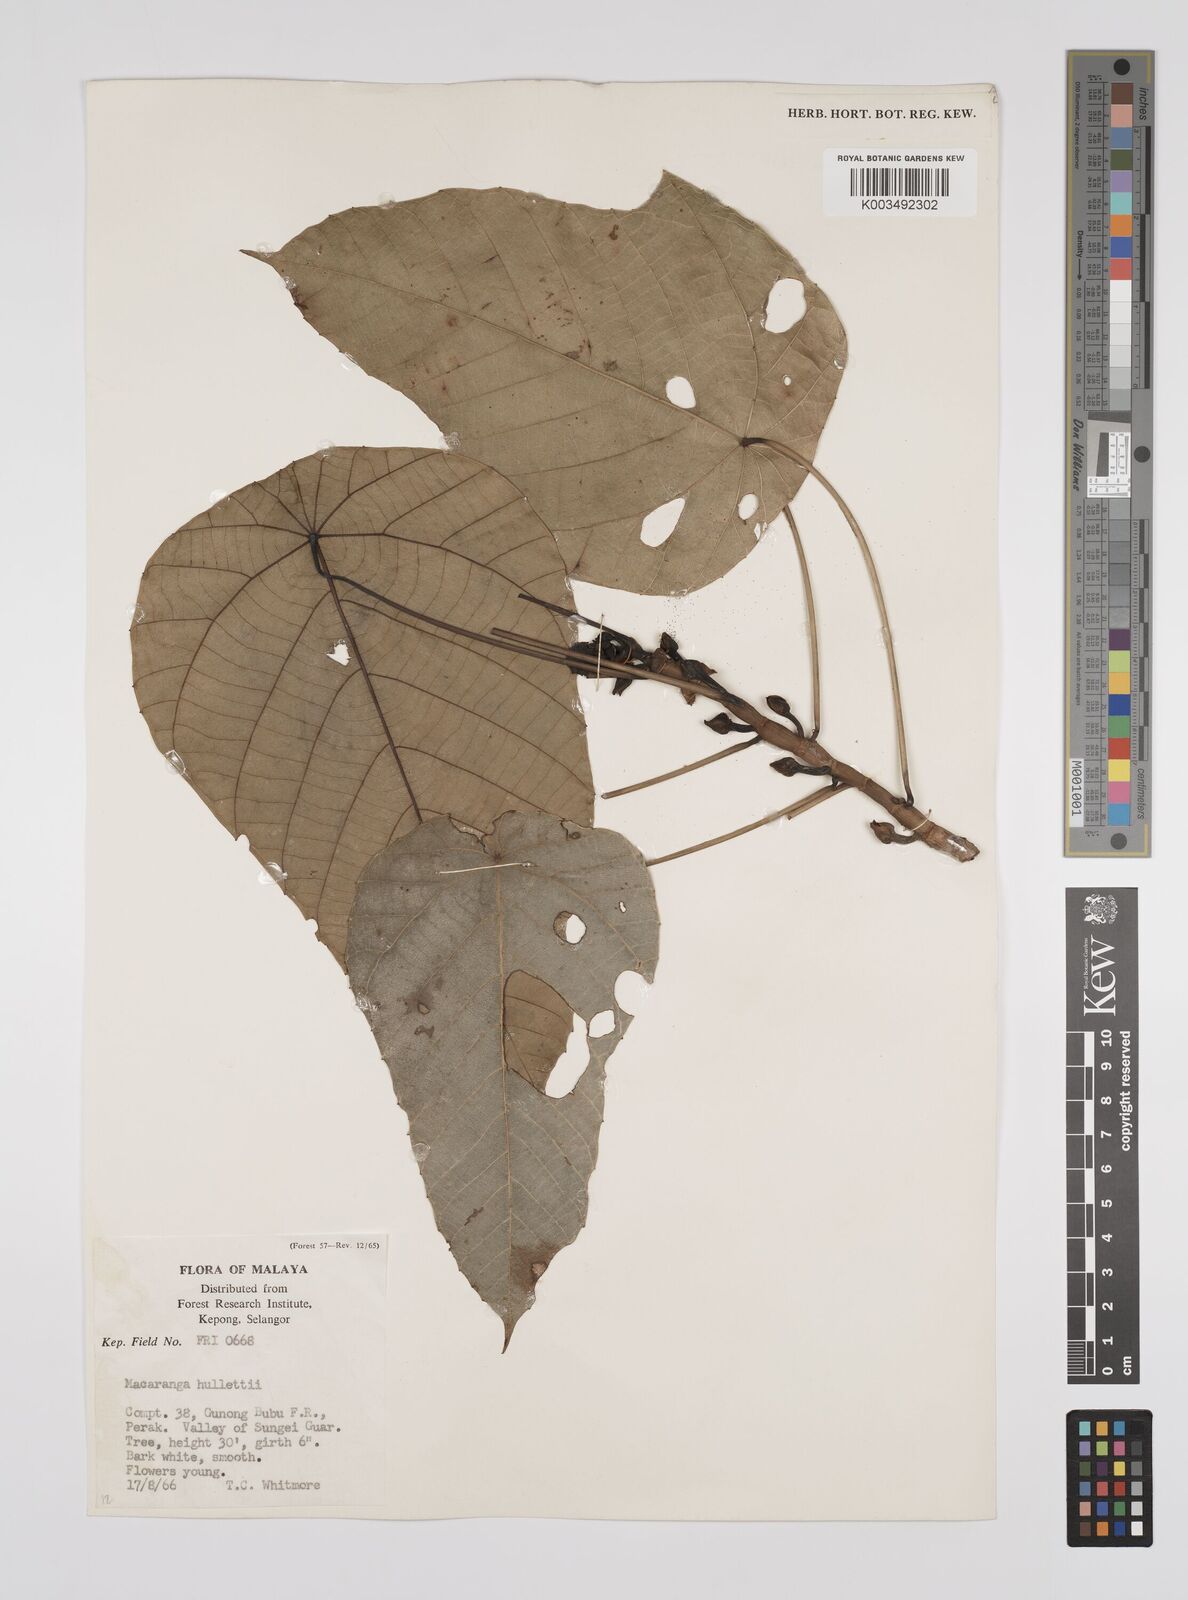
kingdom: Plantae
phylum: Tracheophyta
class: Magnoliopsida
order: Malpighiales
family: Euphorbiaceae
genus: Macaranga
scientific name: Macaranga hullettii
